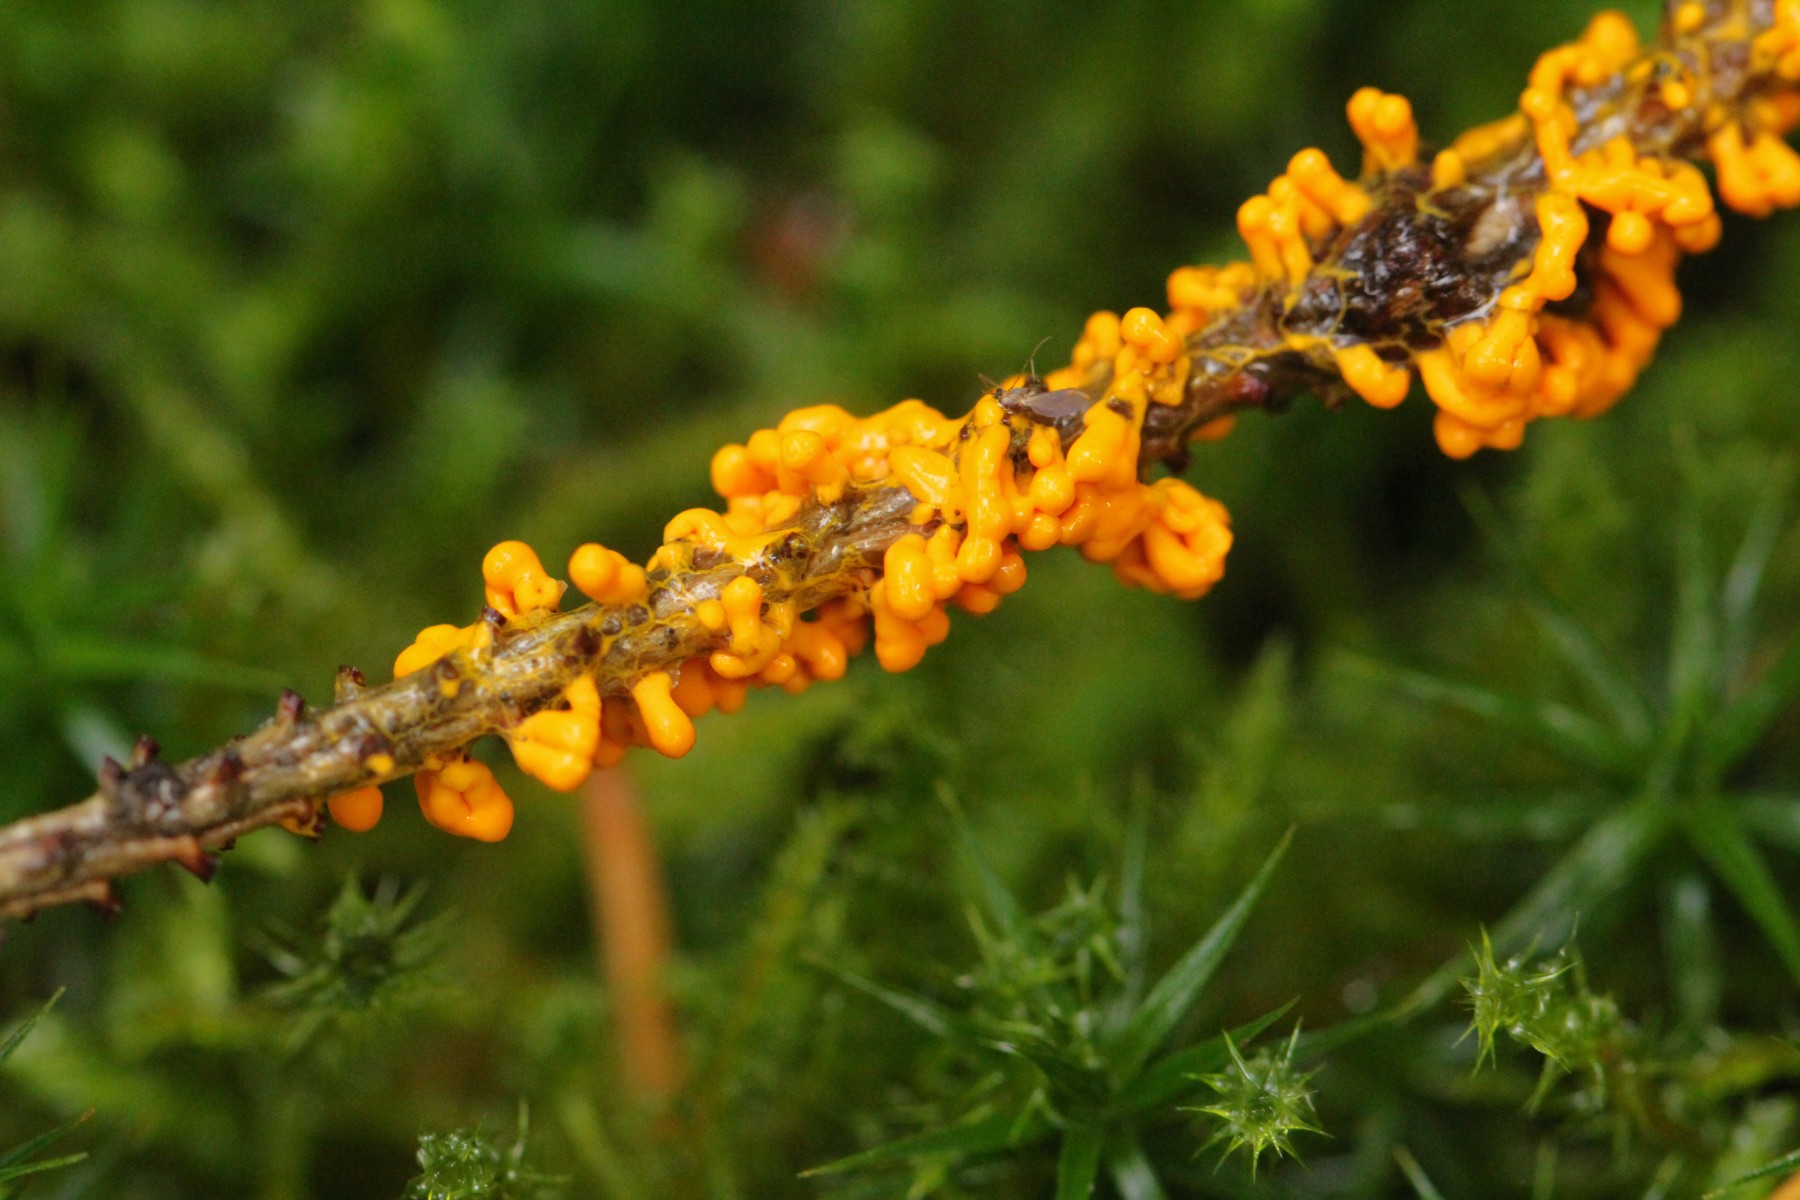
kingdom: Protozoa
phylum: Mycetozoa
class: Myxomycetes
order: Physarales
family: Physaraceae
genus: Leocarpus
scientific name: Leocarpus fragilis
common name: poleret glatfrø
